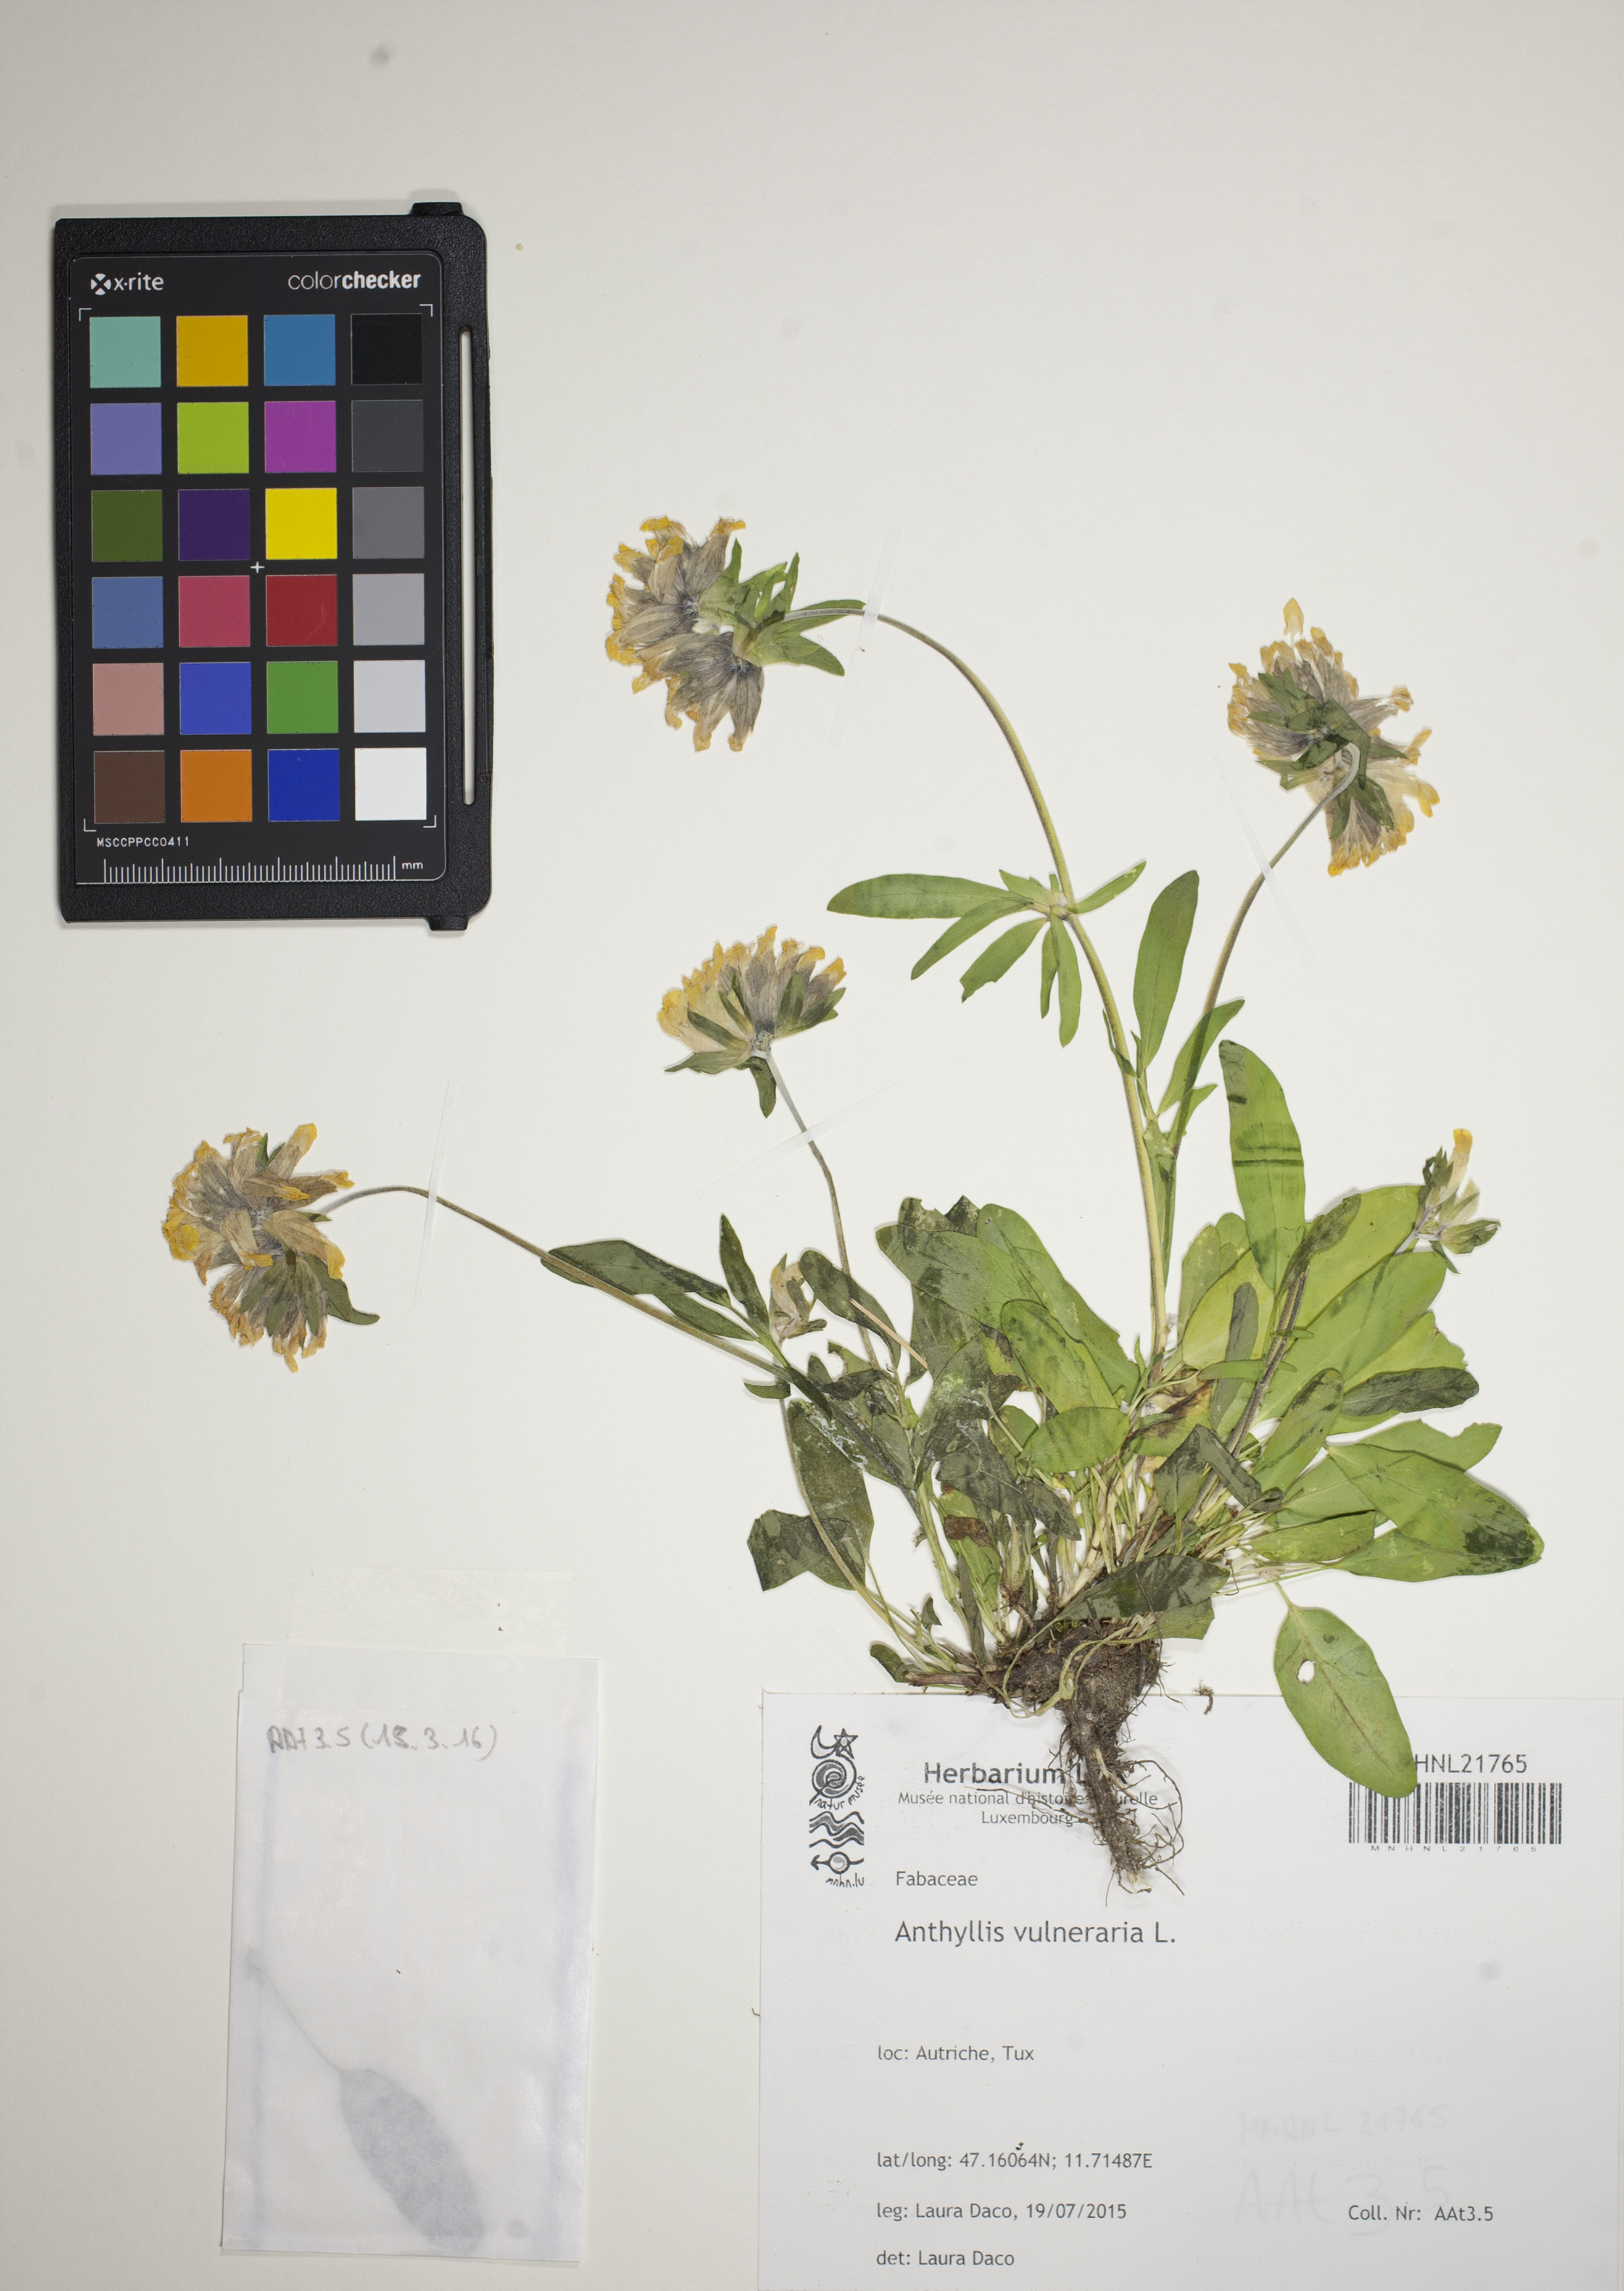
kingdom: Plantae
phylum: Tracheophyta
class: Magnoliopsida
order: Fabales
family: Fabaceae
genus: Anthyllis
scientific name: Anthyllis vulneraria
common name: Kidney vetch
